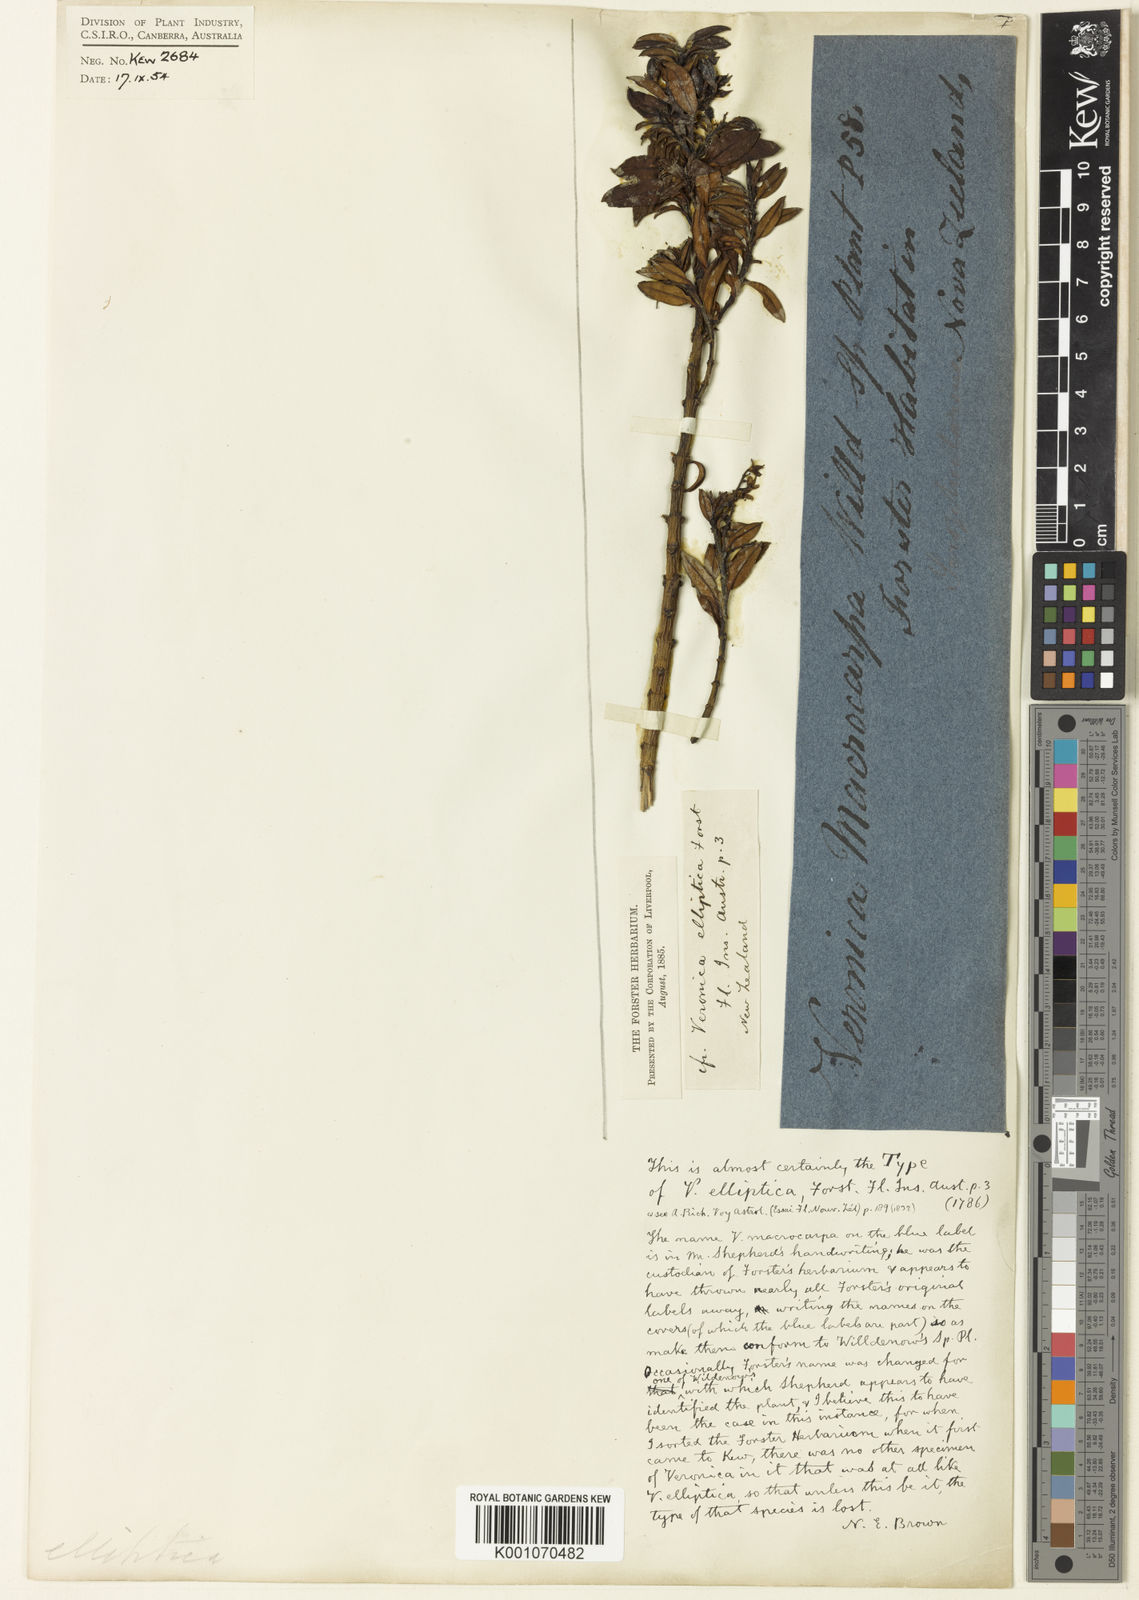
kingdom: Plantae
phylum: Tracheophyta
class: Magnoliopsida
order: Lamiales
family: Plantaginaceae
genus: Veronica
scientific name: Veronica elliptica
